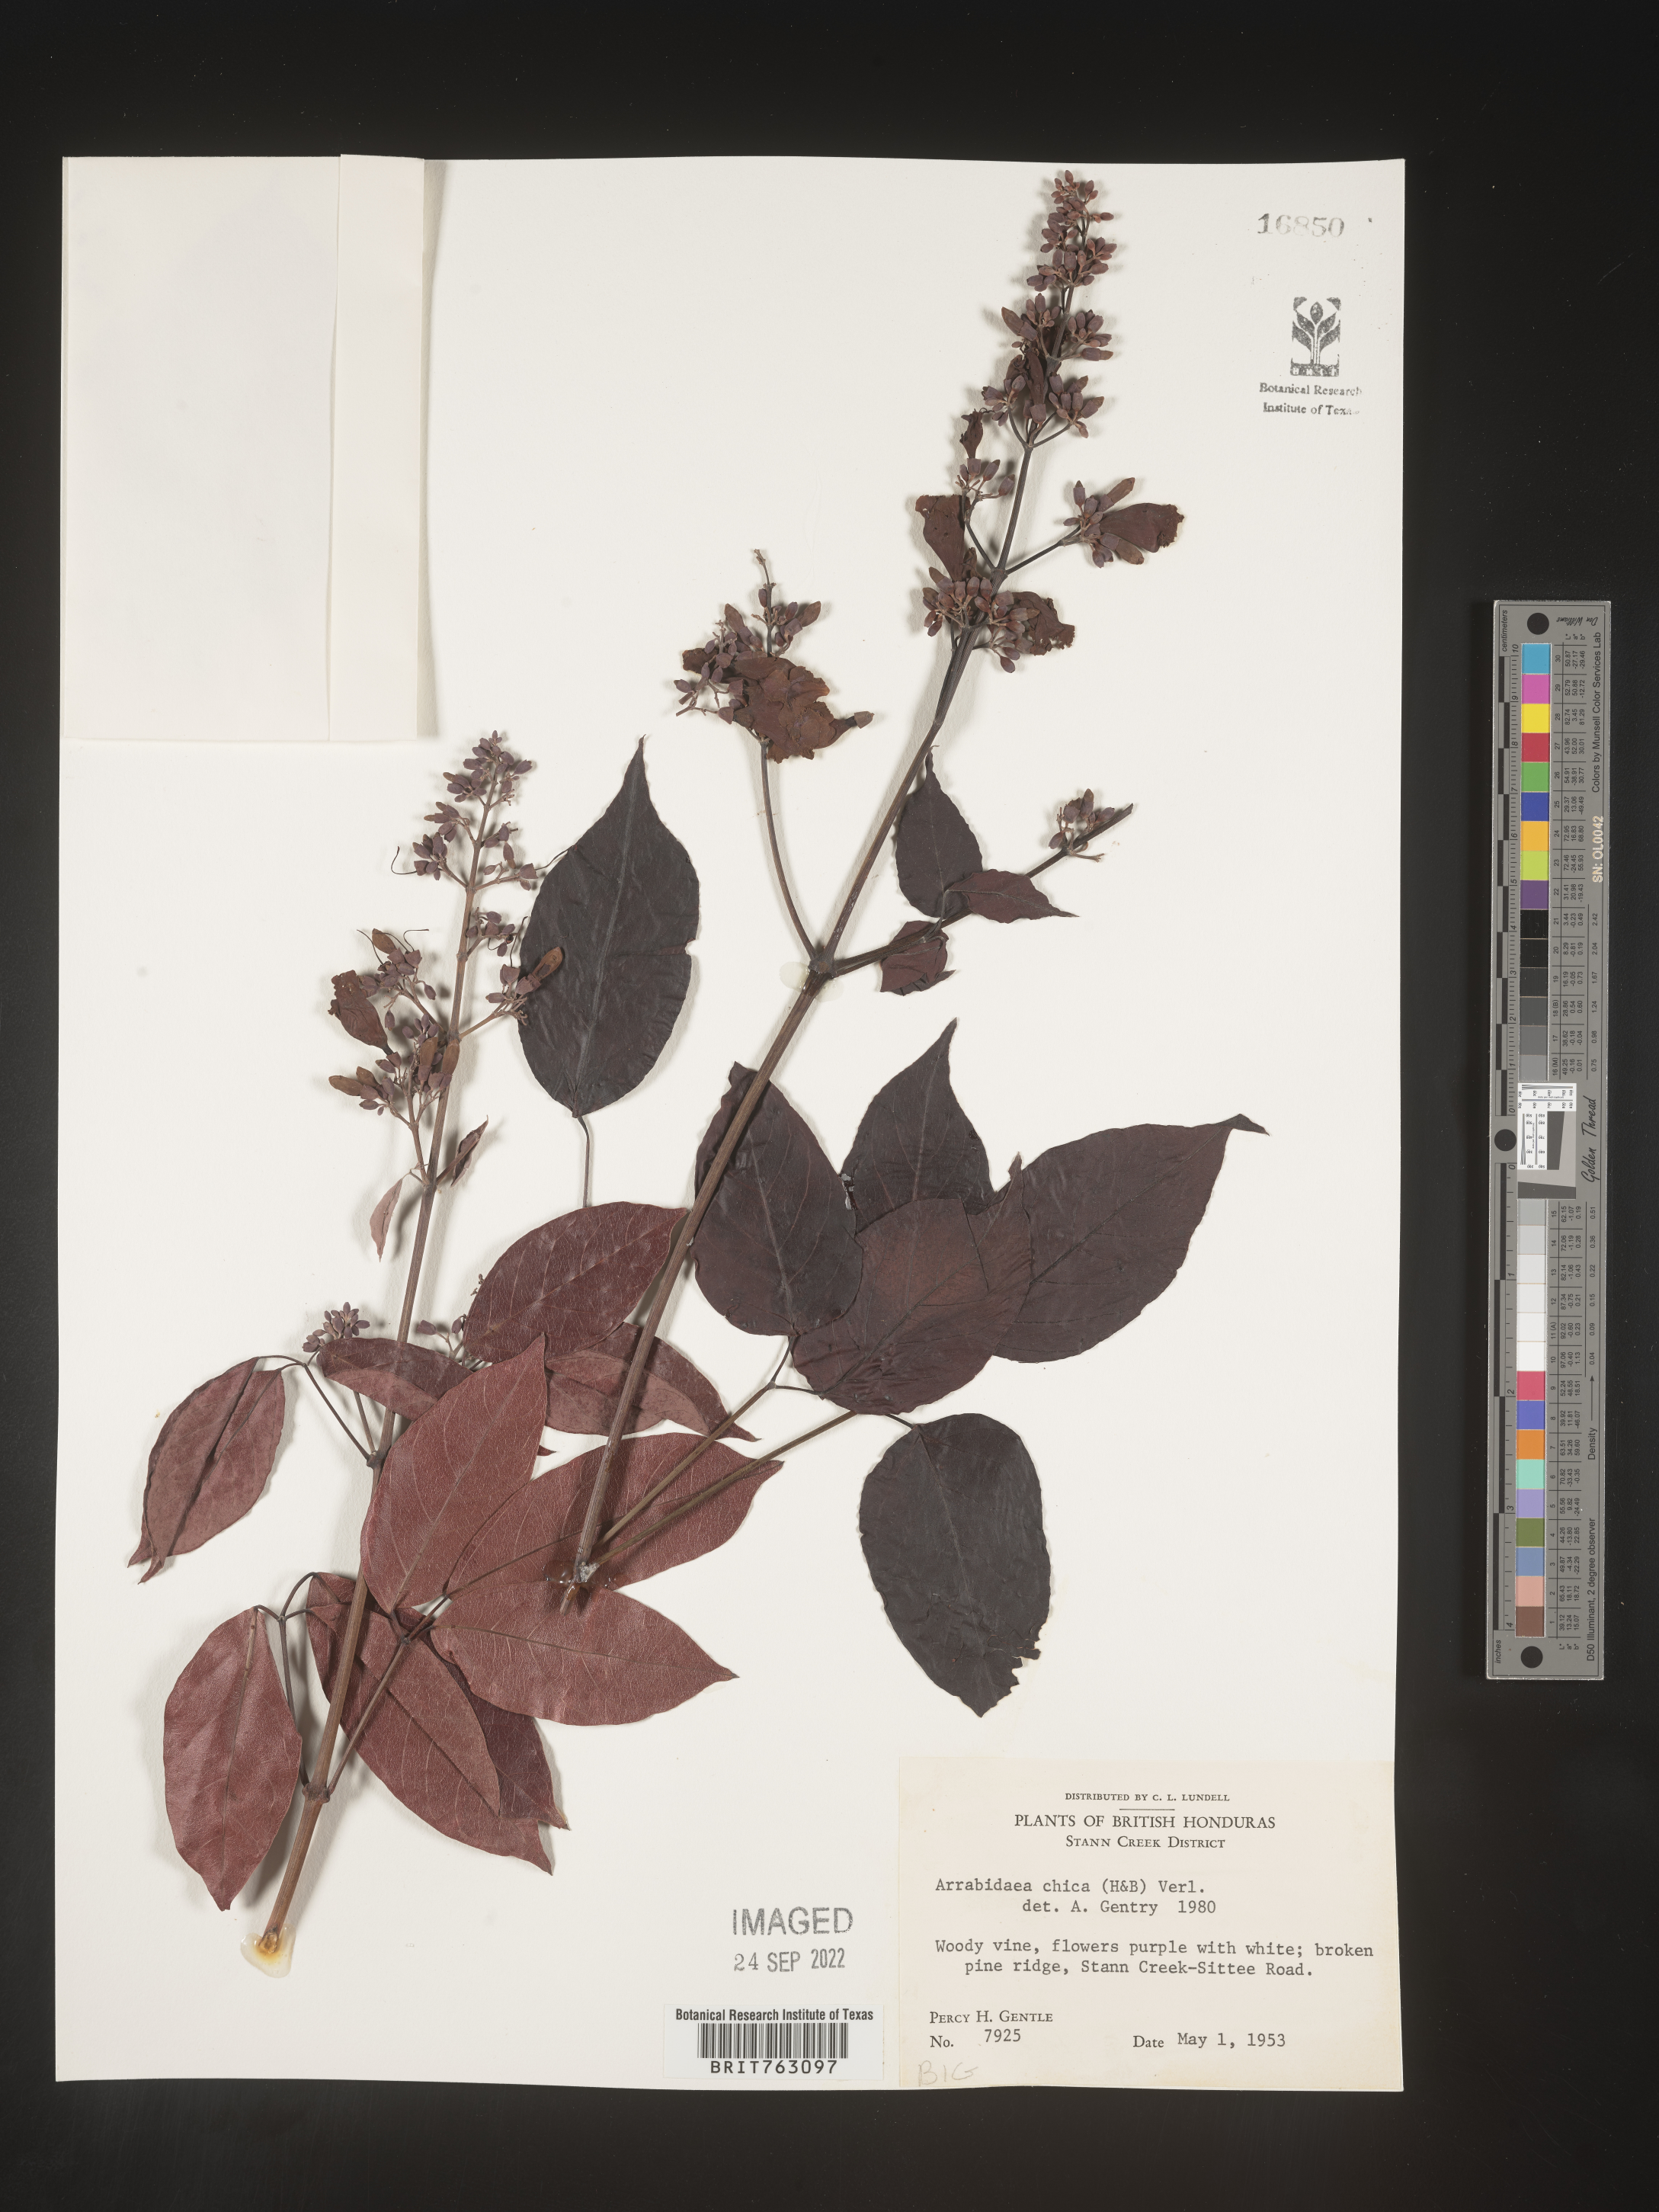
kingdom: Plantae
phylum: Tracheophyta
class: Magnoliopsida
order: Rosales
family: Rhamnaceae
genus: Arrabidaea
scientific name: Arrabidaea
